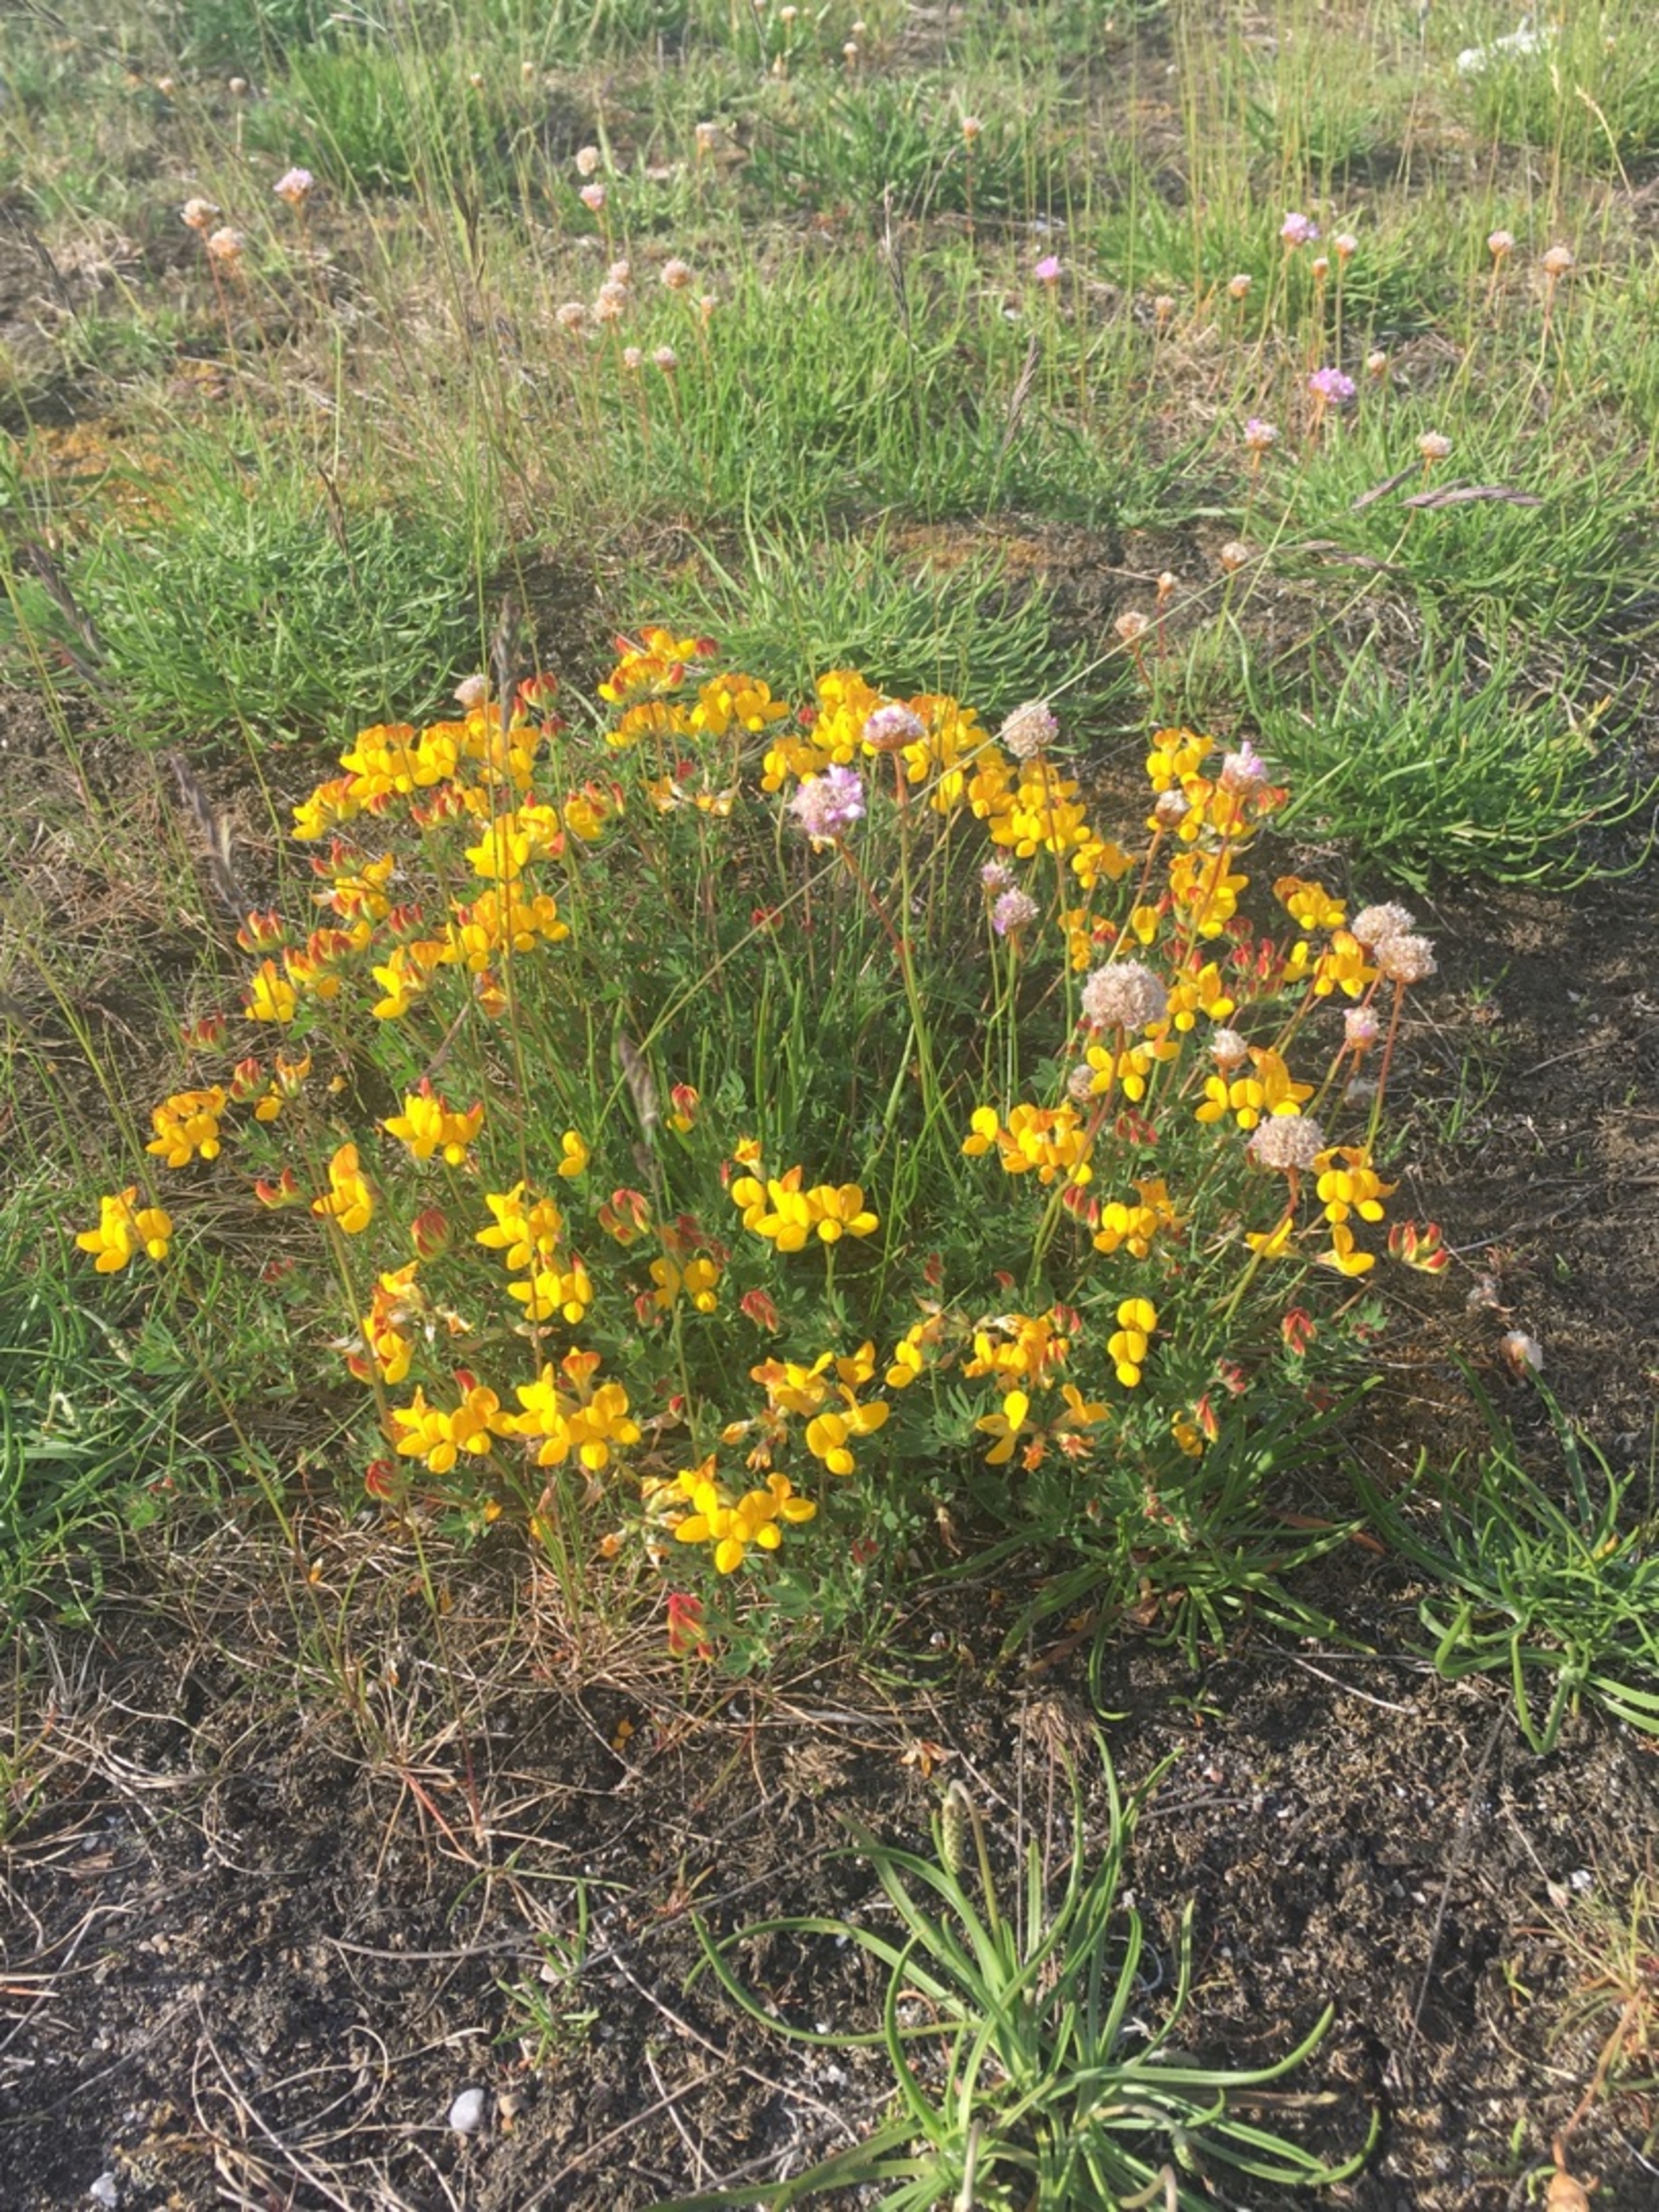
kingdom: Plantae
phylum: Tracheophyta
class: Magnoliopsida
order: Fabales
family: Fabaceae
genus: Lotus
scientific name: Lotus corniculatus
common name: Almindelig kællingetand
